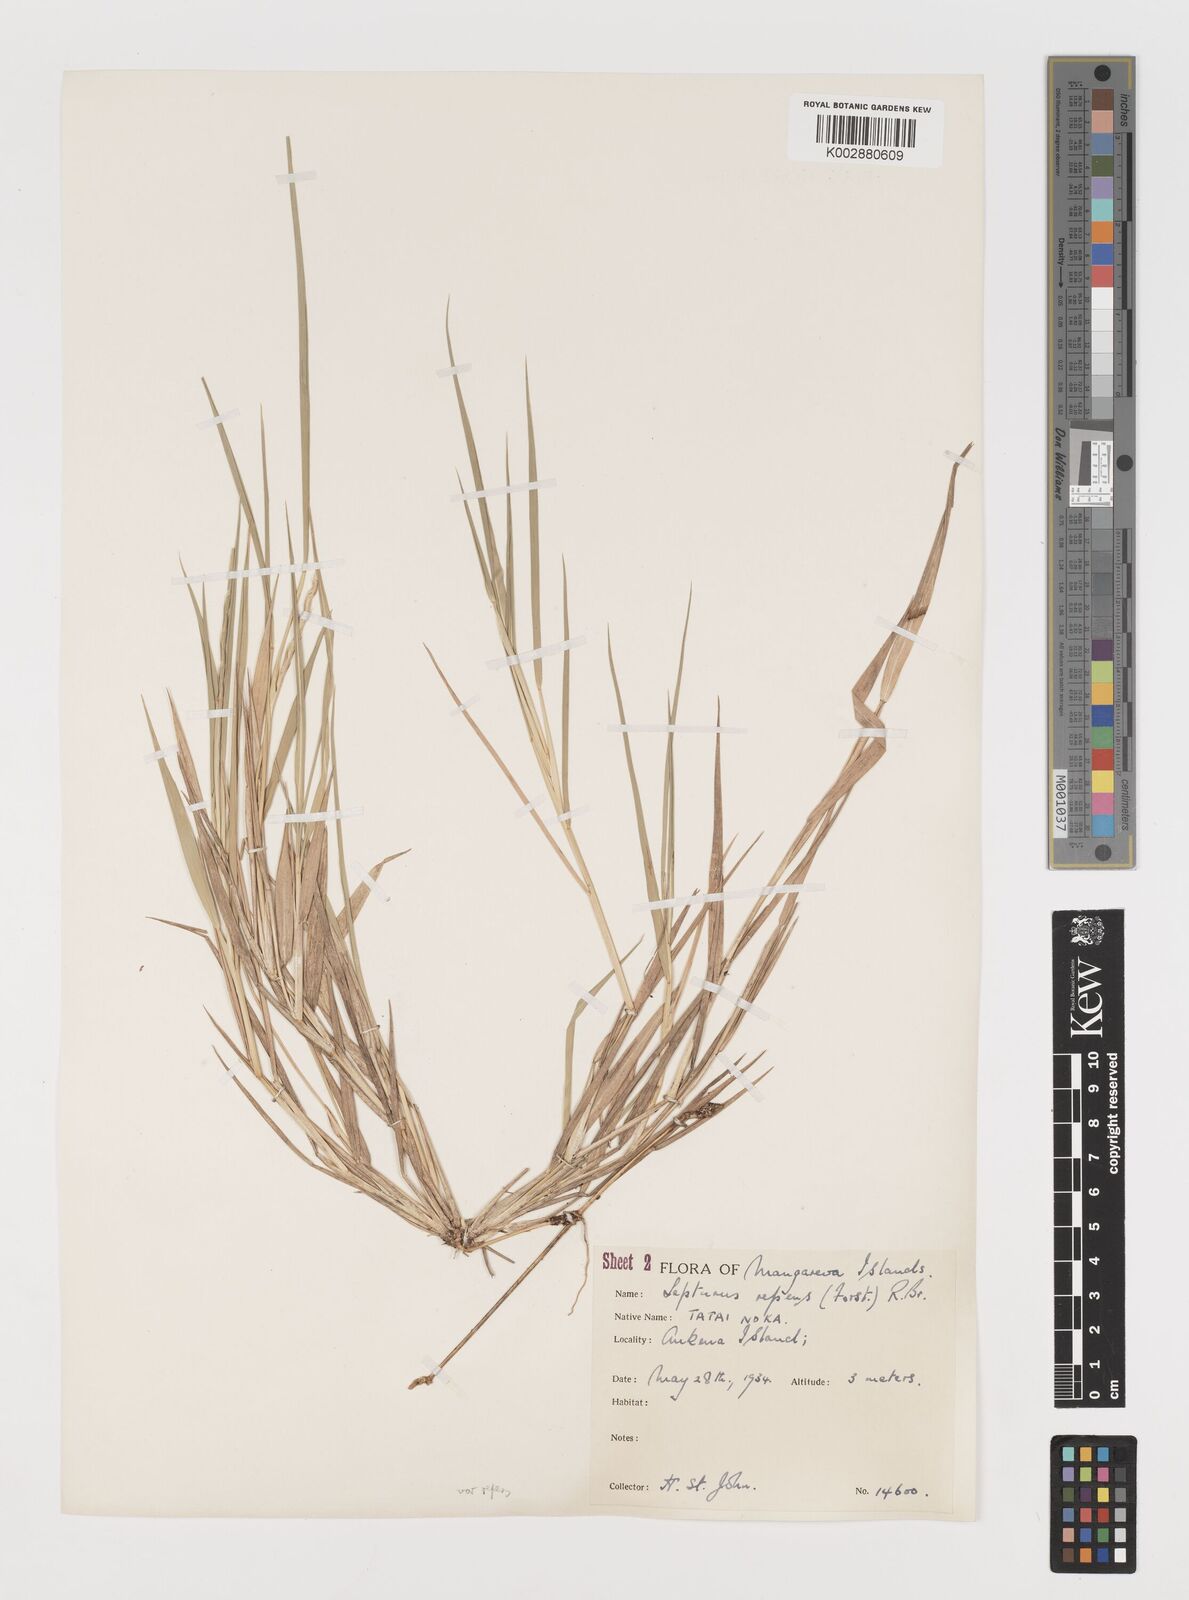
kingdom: Plantae
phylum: Tracheophyta
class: Liliopsida
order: Poales
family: Poaceae
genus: Lepturus
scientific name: Lepturus repens
